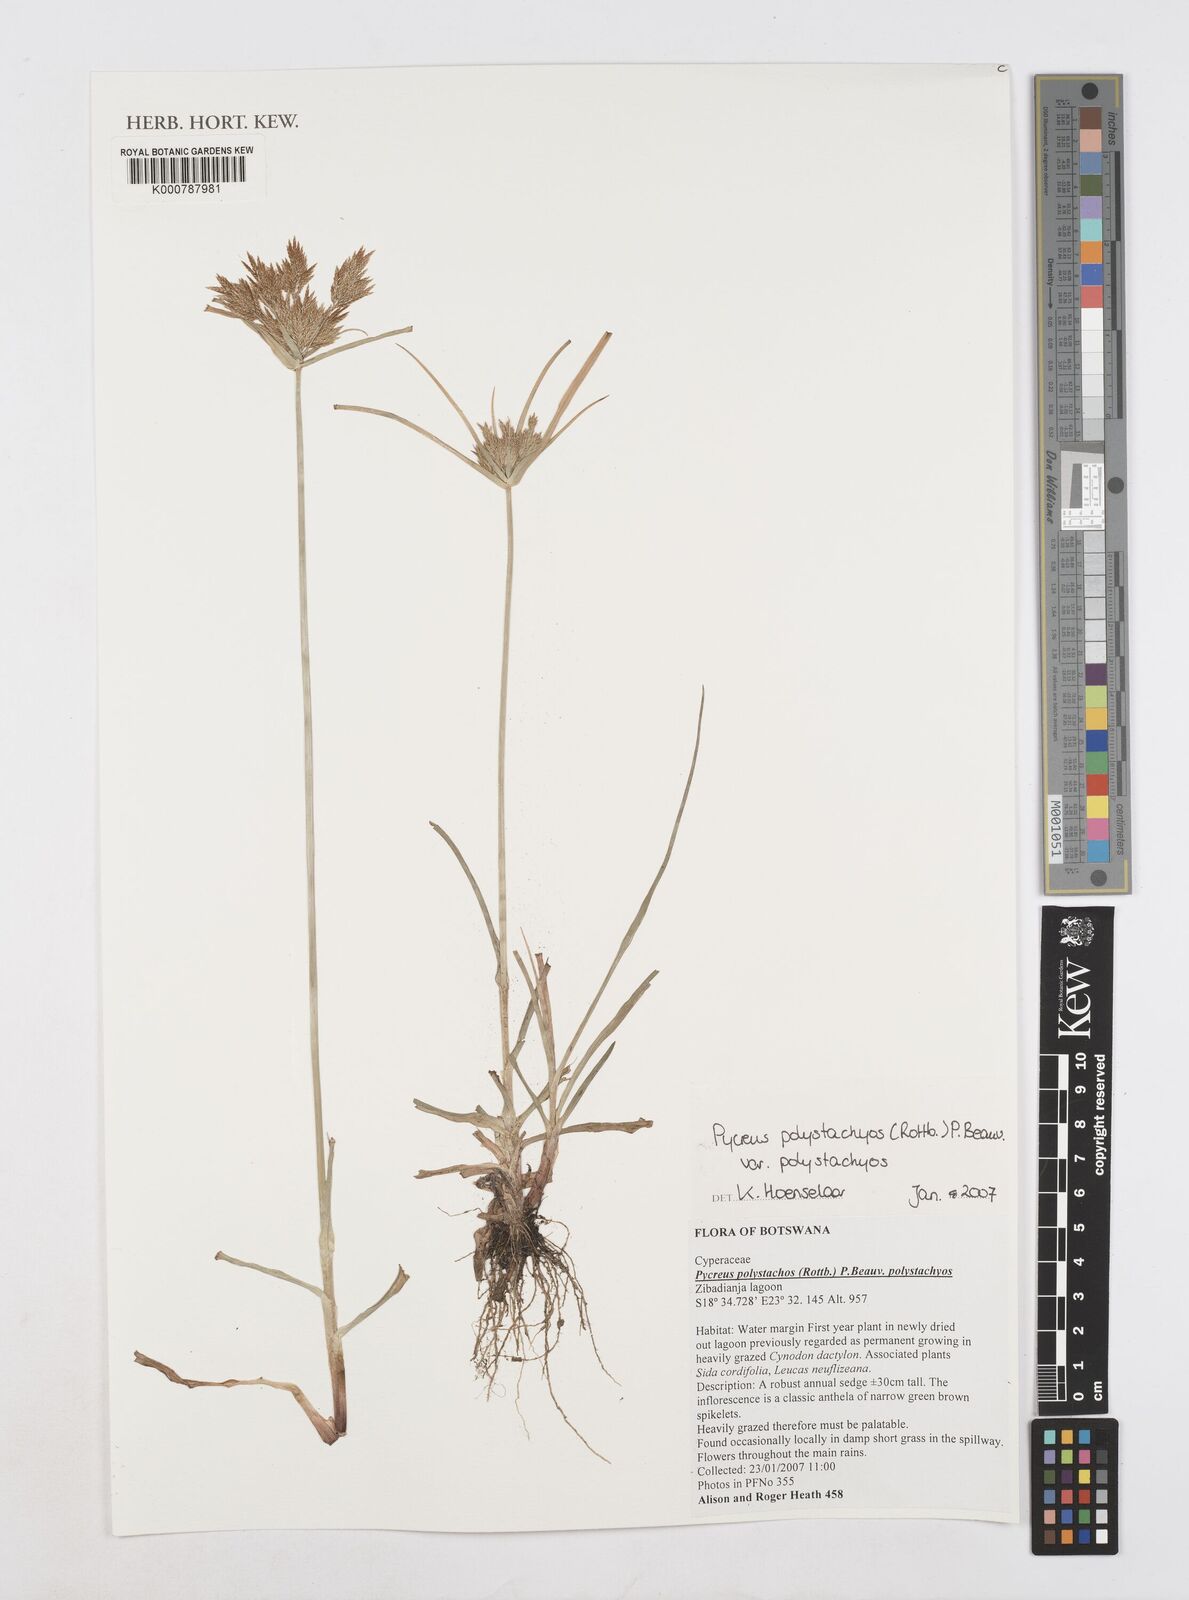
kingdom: Plantae
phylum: Tracheophyta
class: Liliopsida
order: Poales
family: Cyperaceae
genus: Cyperus
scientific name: Cyperus polystachyos
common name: Bunchy flat sedge
